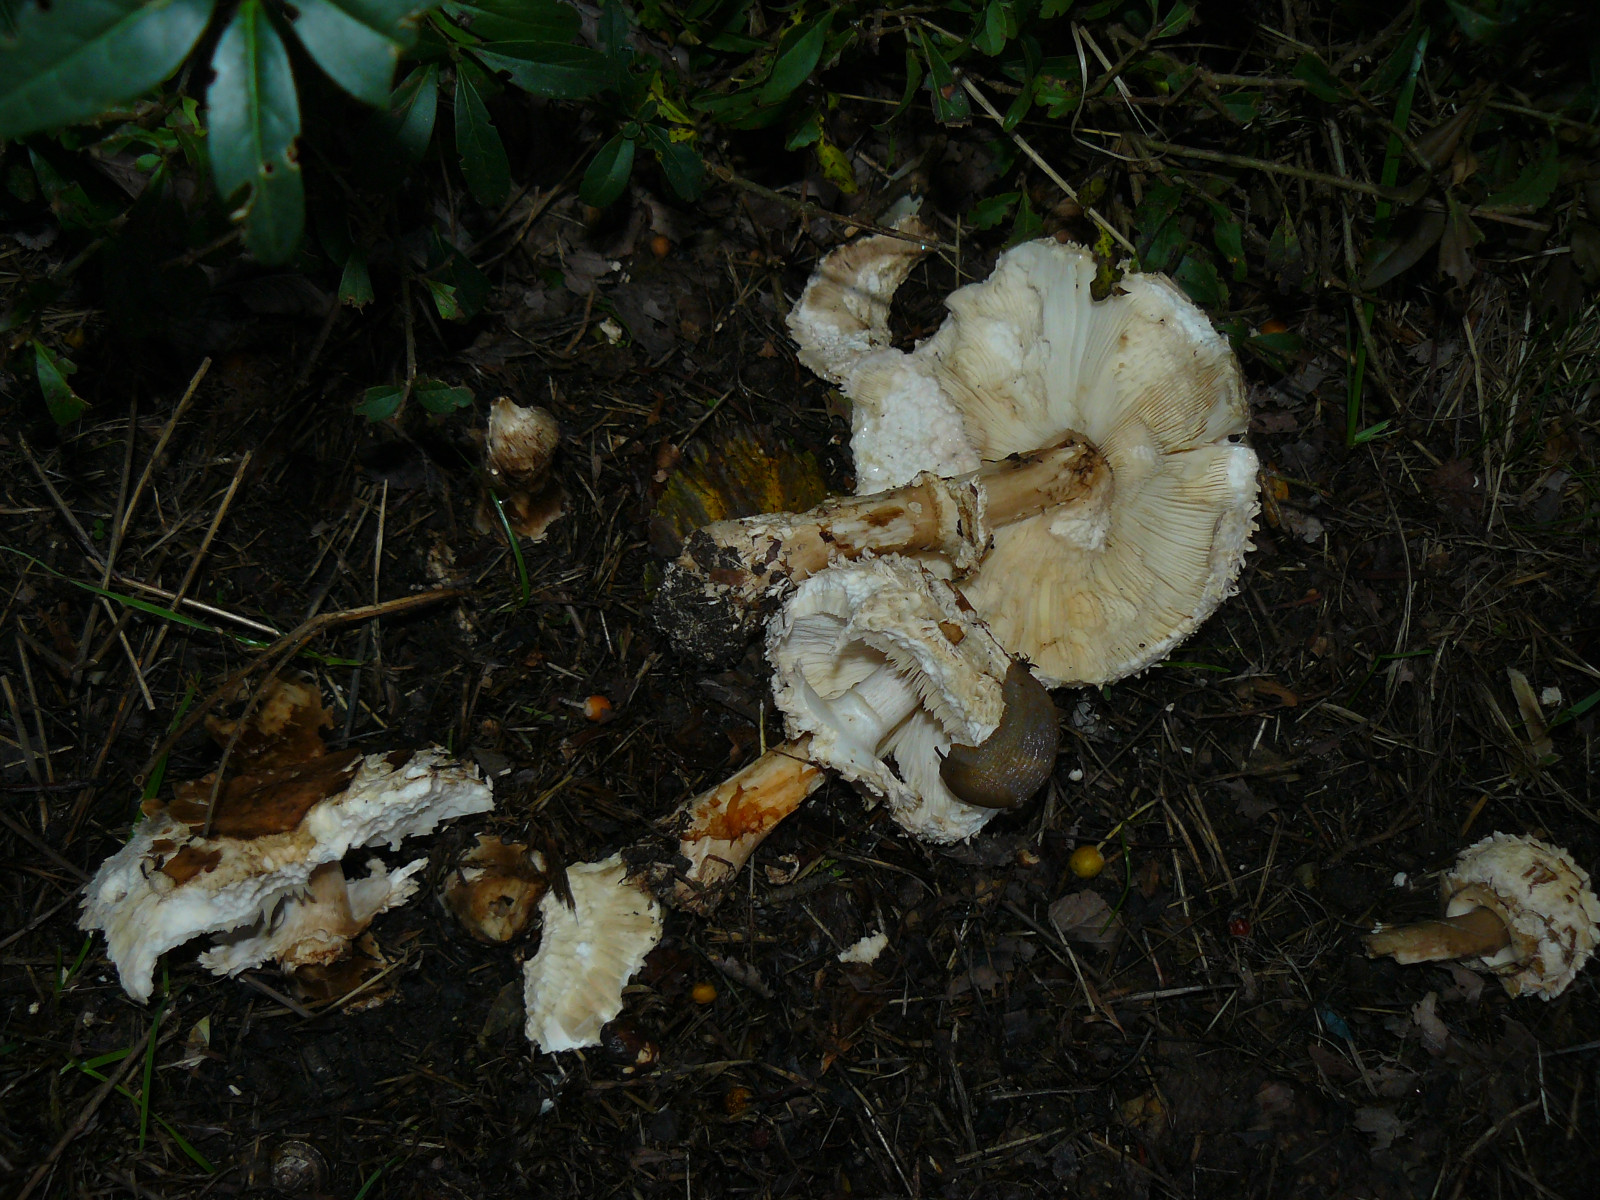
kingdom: Fungi
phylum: Basidiomycota
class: Agaricomycetes
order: Agaricales
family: Agaricaceae
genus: Chlorophyllum
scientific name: Chlorophyllum brunneum
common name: giftig rabarberhat
